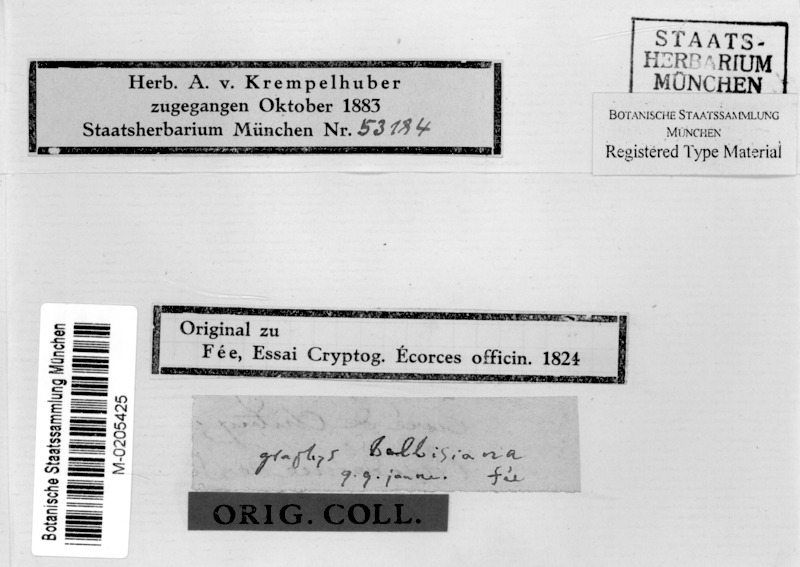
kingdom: Fungi
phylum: Ascomycota
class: Lecanoromycetes
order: Ostropales
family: Graphidaceae
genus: Allographa
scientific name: Allographa balbisii
